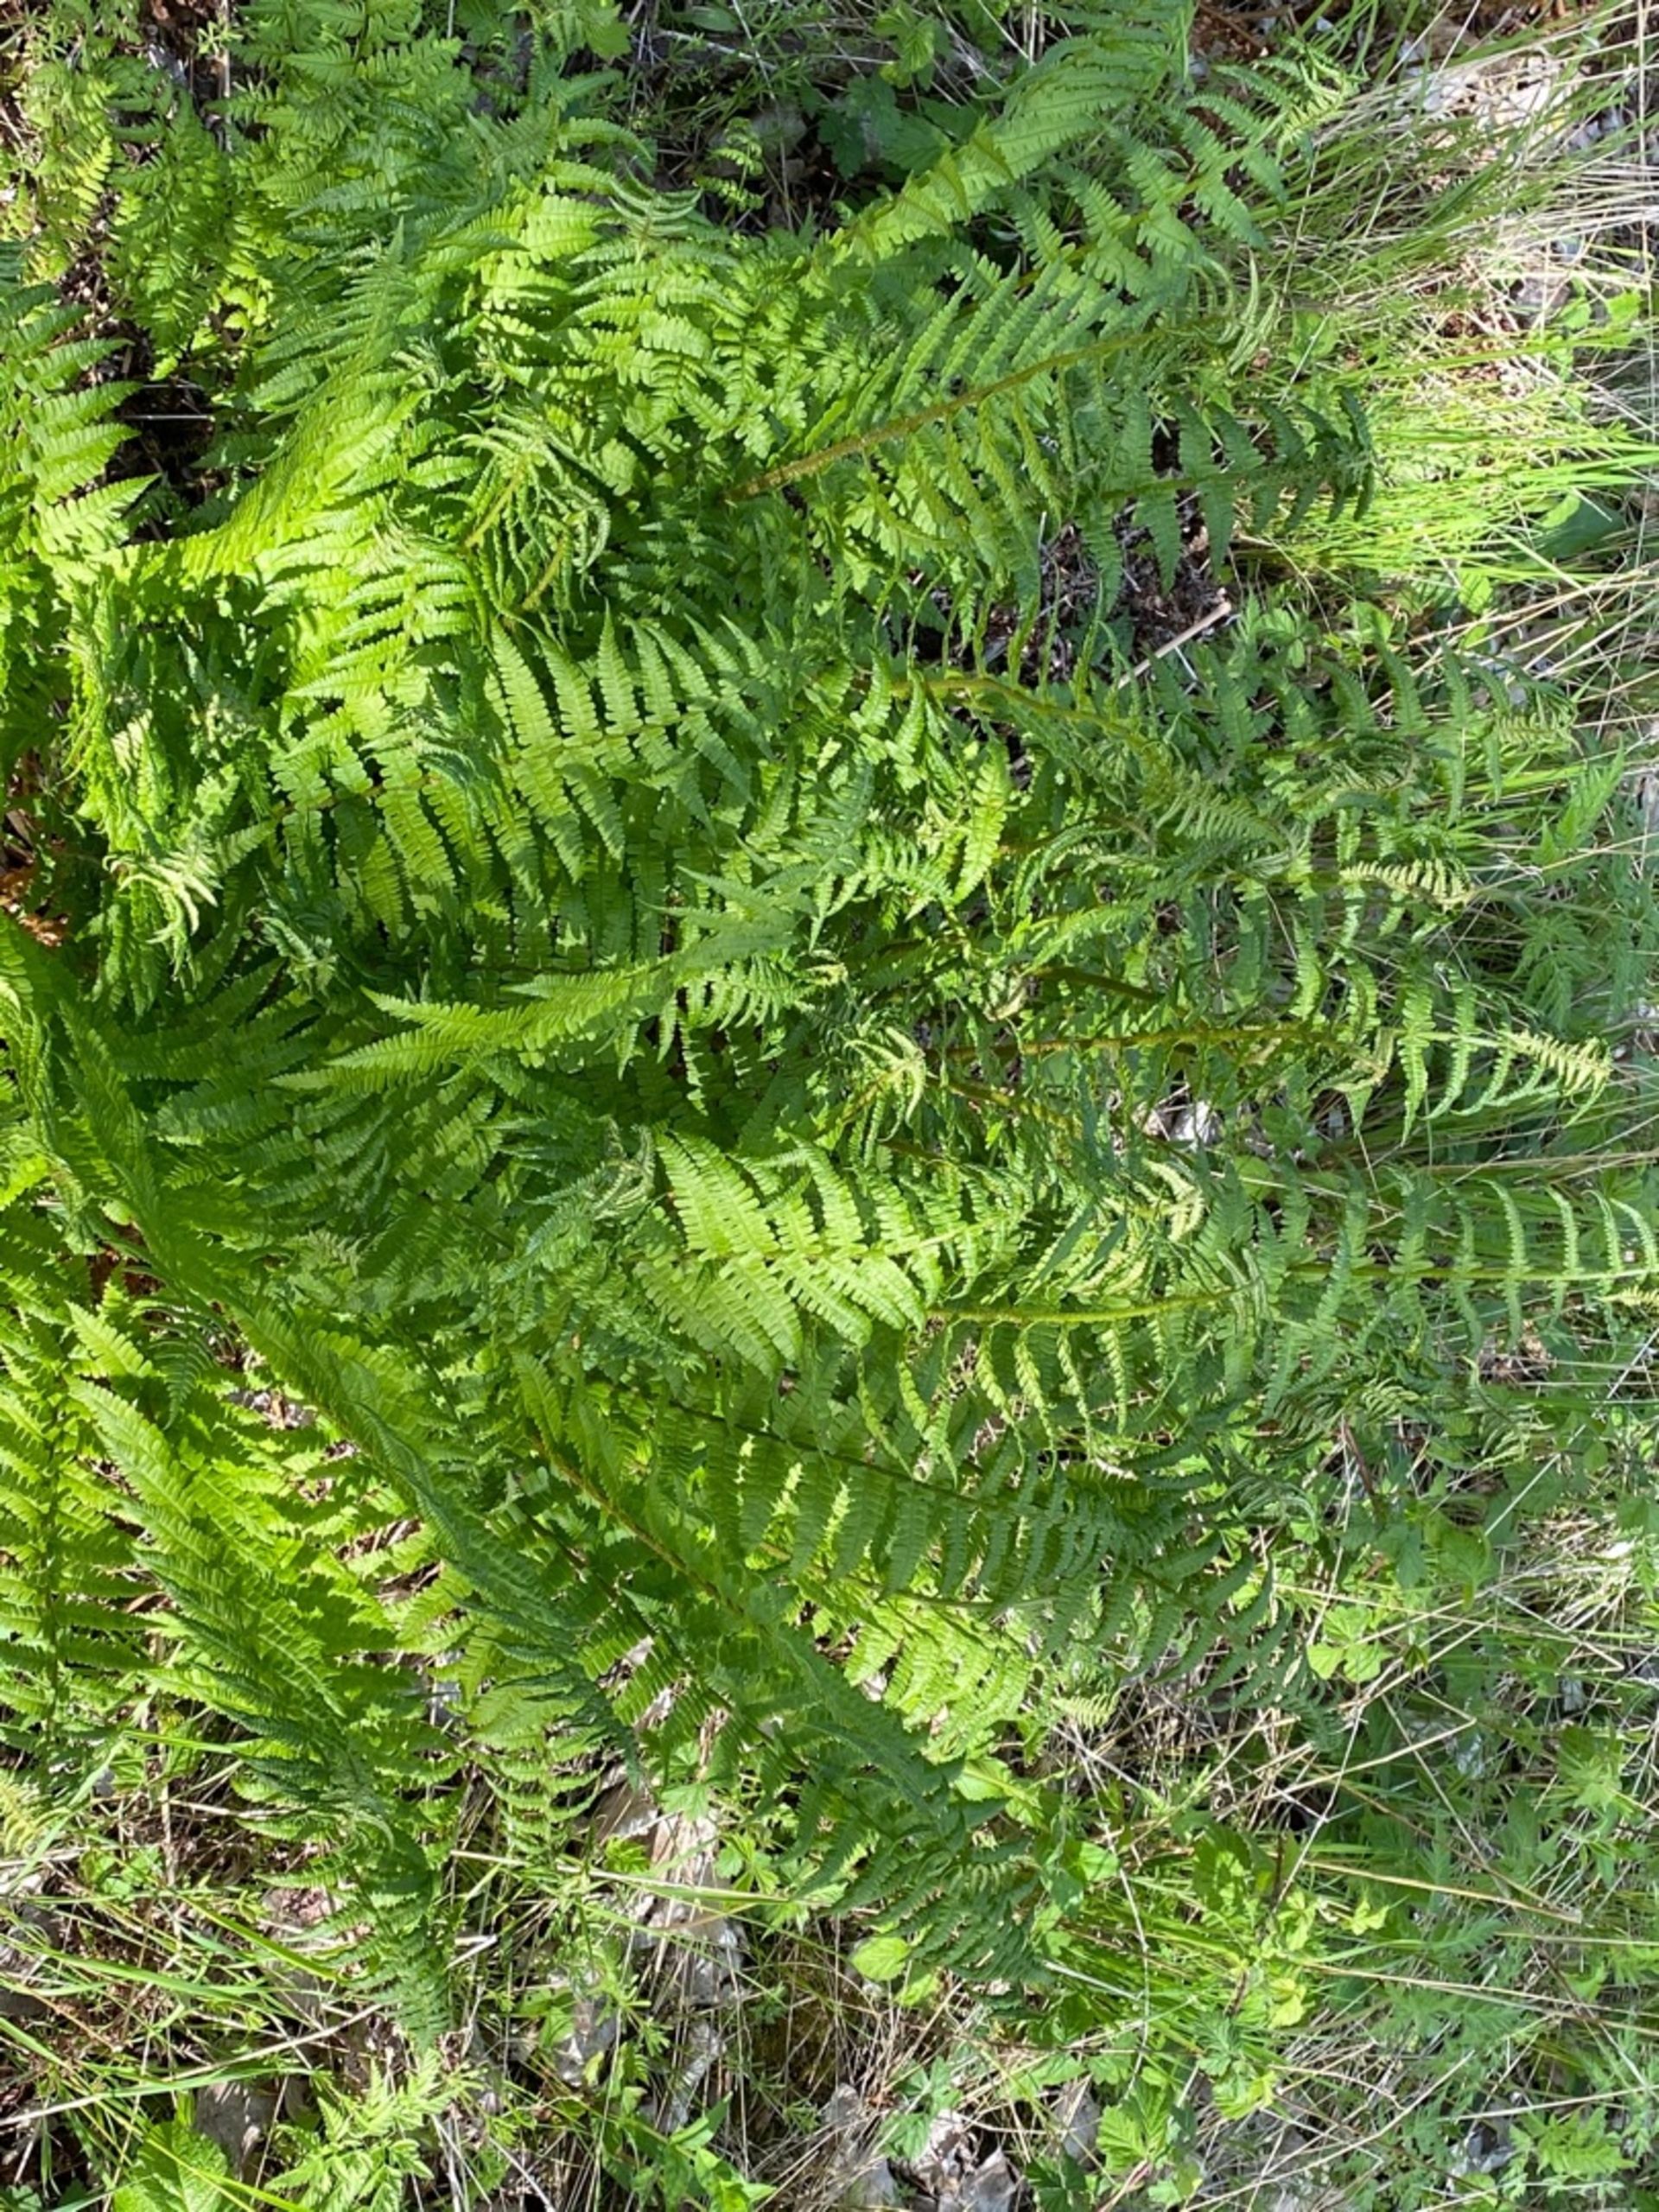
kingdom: Plantae
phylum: Tracheophyta
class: Polypodiopsida
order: Polypodiales
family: Dryopteridaceae
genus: Dryopteris
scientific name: Dryopteris filix-mas
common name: Almindelig mangeløv
